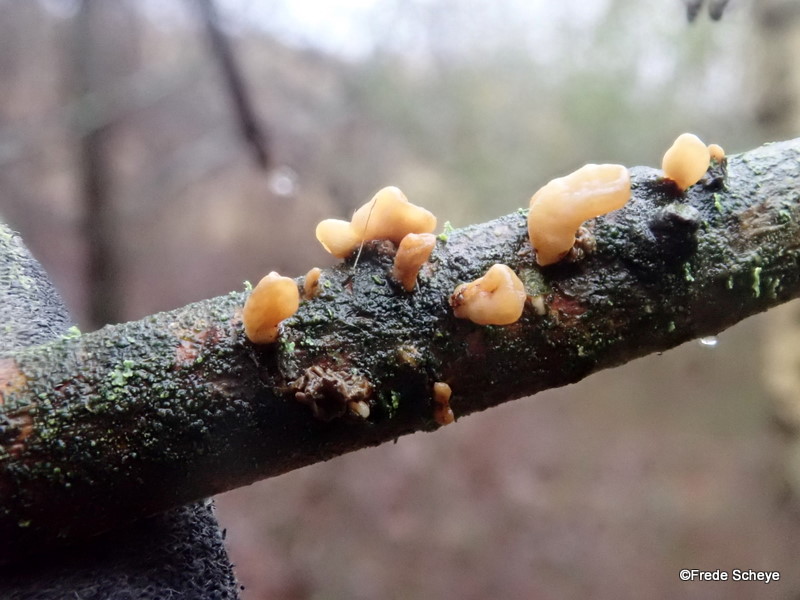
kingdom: Fungi
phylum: Basidiomycota
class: Agaricomycetes
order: Agaricales
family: Typhulaceae
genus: Typhula
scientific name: Typhula contorta
